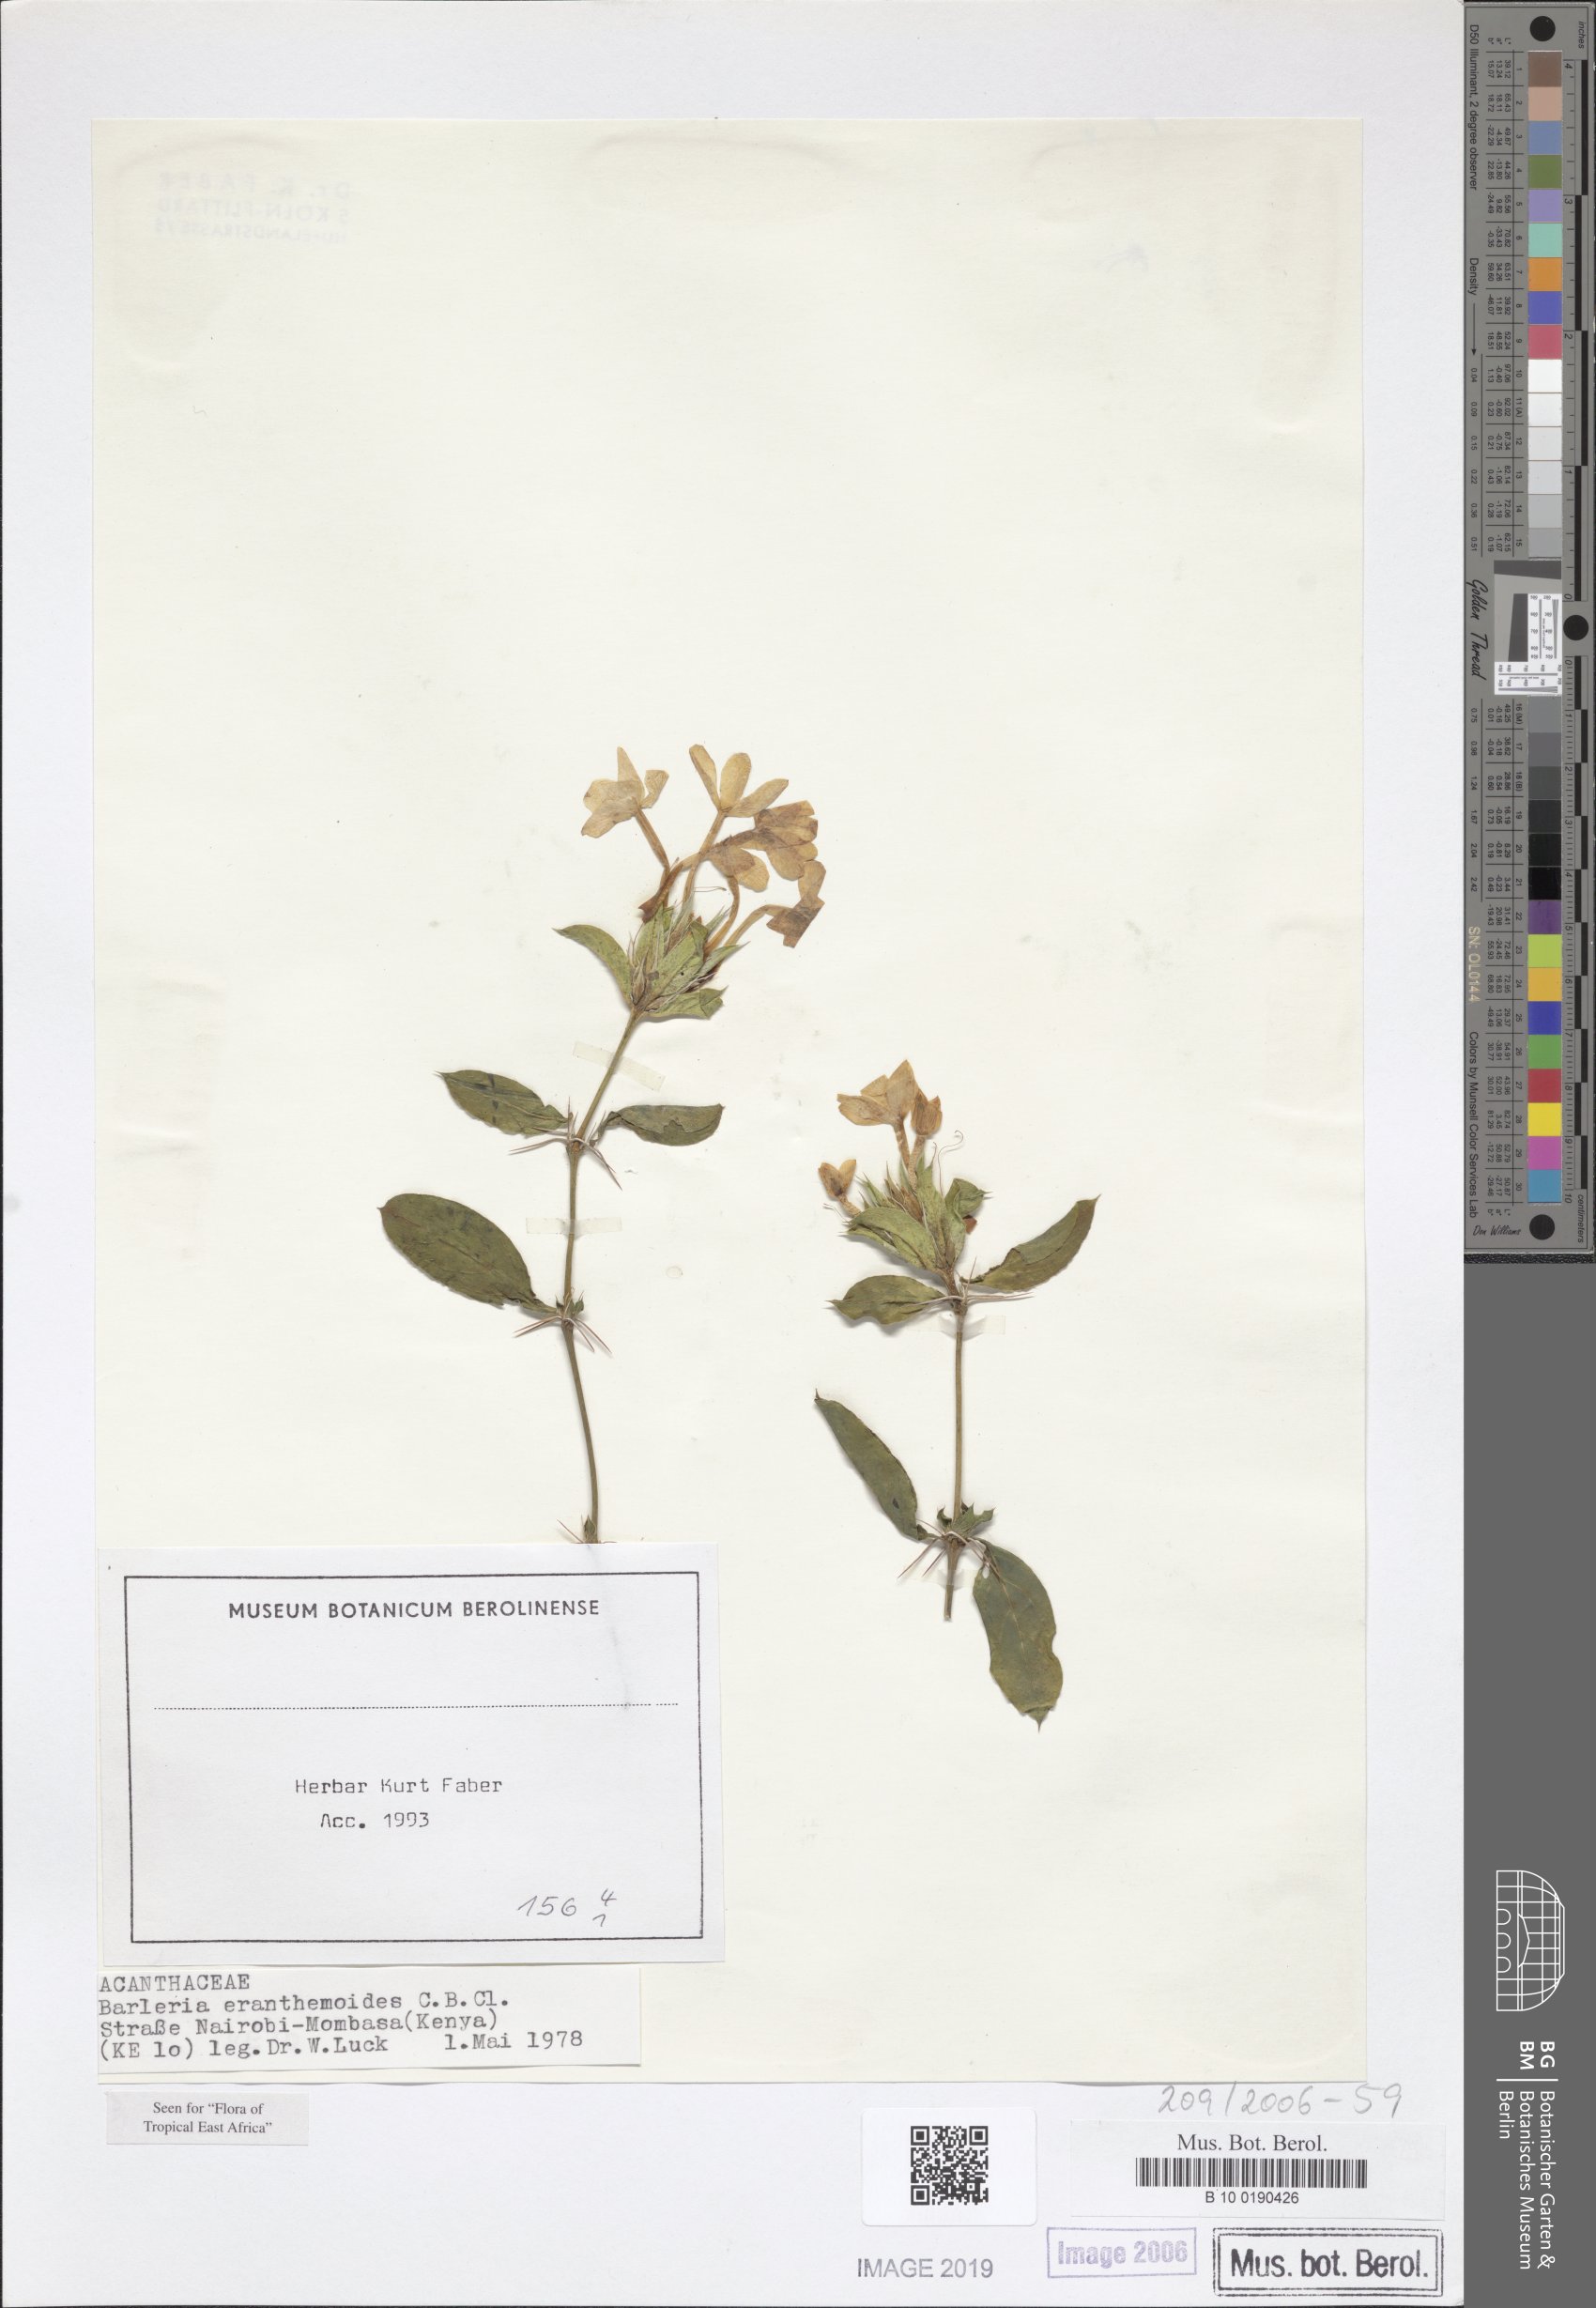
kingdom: Plantae
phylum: Tracheophyta
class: Magnoliopsida
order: Lamiales
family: Acanthaceae
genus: Barleria
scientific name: Barleria eranthemoides
